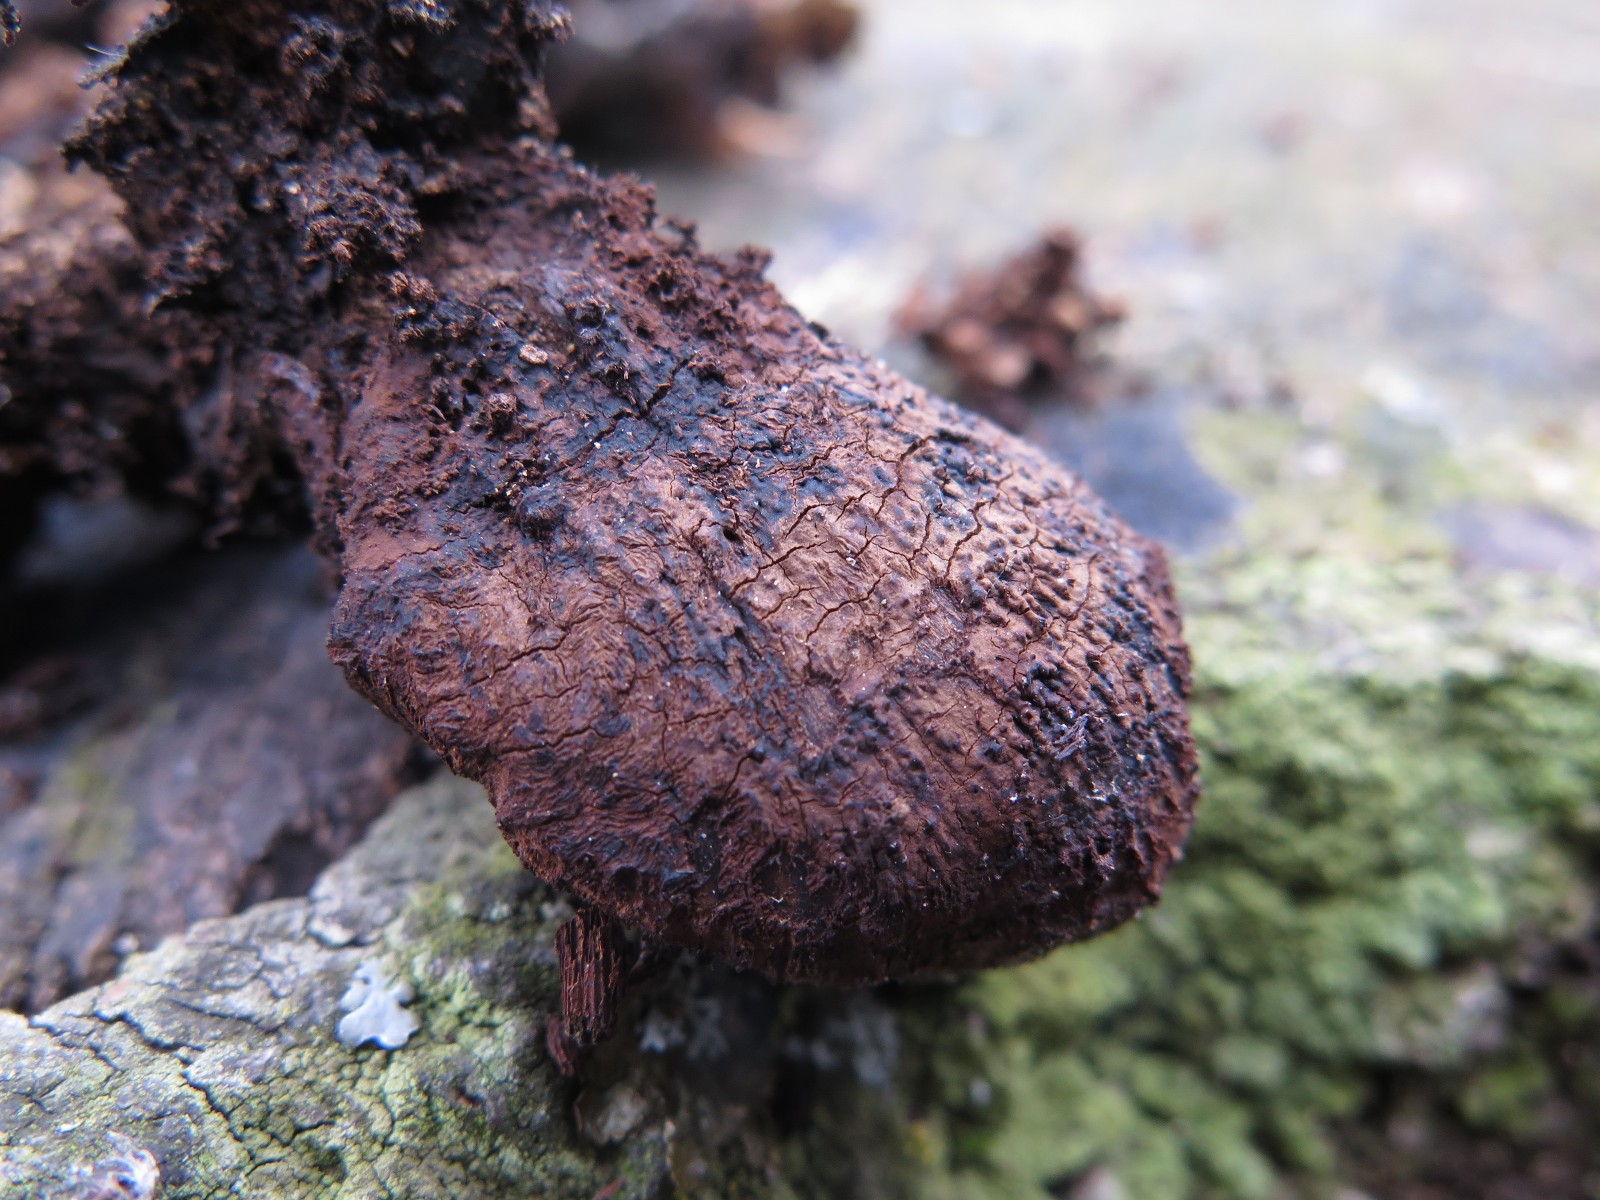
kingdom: Fungi
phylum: Basidiomycota
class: Agaricomycetes
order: Hymenochaetales
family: Hymenochaetaceae
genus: Inonotus
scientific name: Inonotus cuticularis
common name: kroghåret spejlporesvamp
